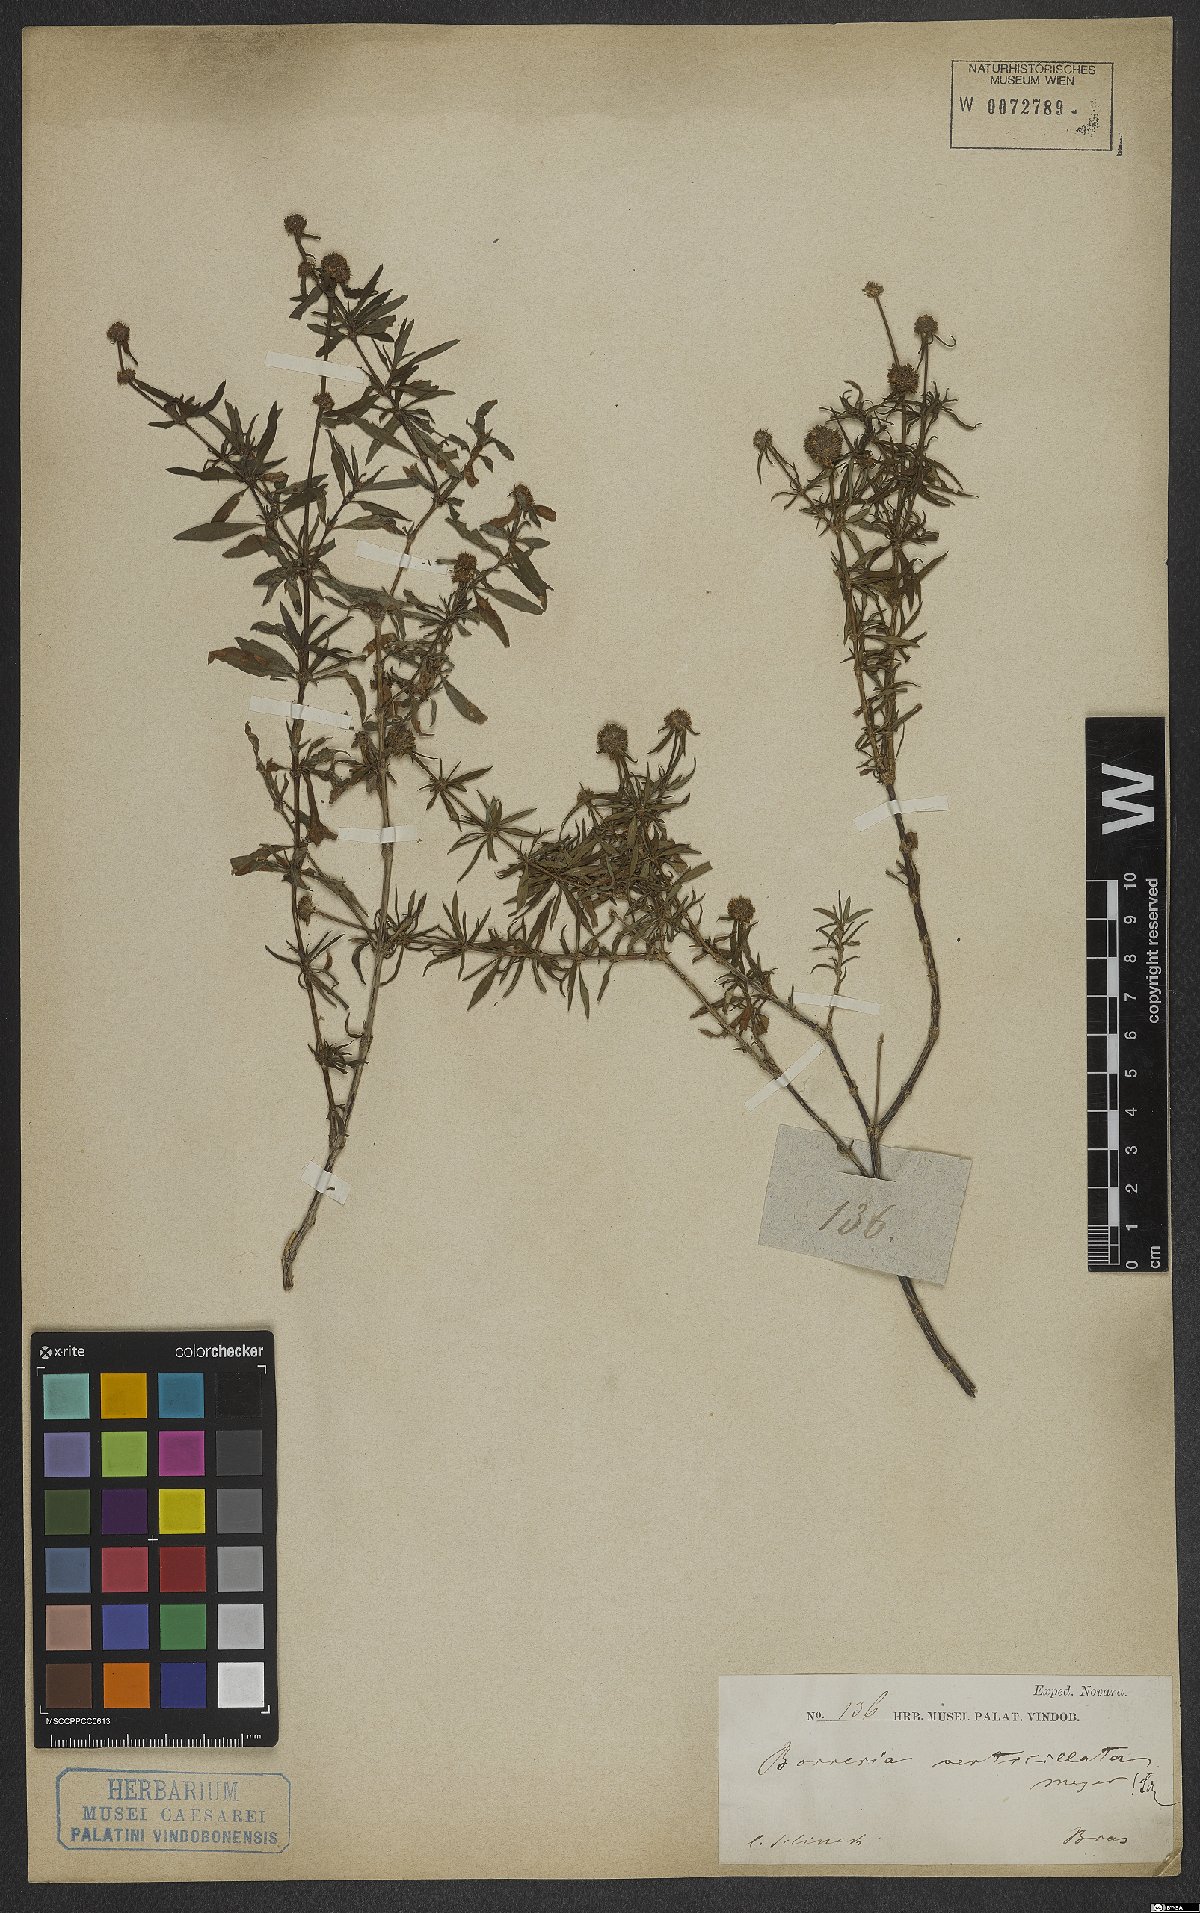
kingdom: Plantae
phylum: Tracheophyta
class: Magnoliopsida
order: Gentianales
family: Rubiaceae
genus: Spermacoce
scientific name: Spermacoce verticillata
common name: Shrubby false buttonweed
